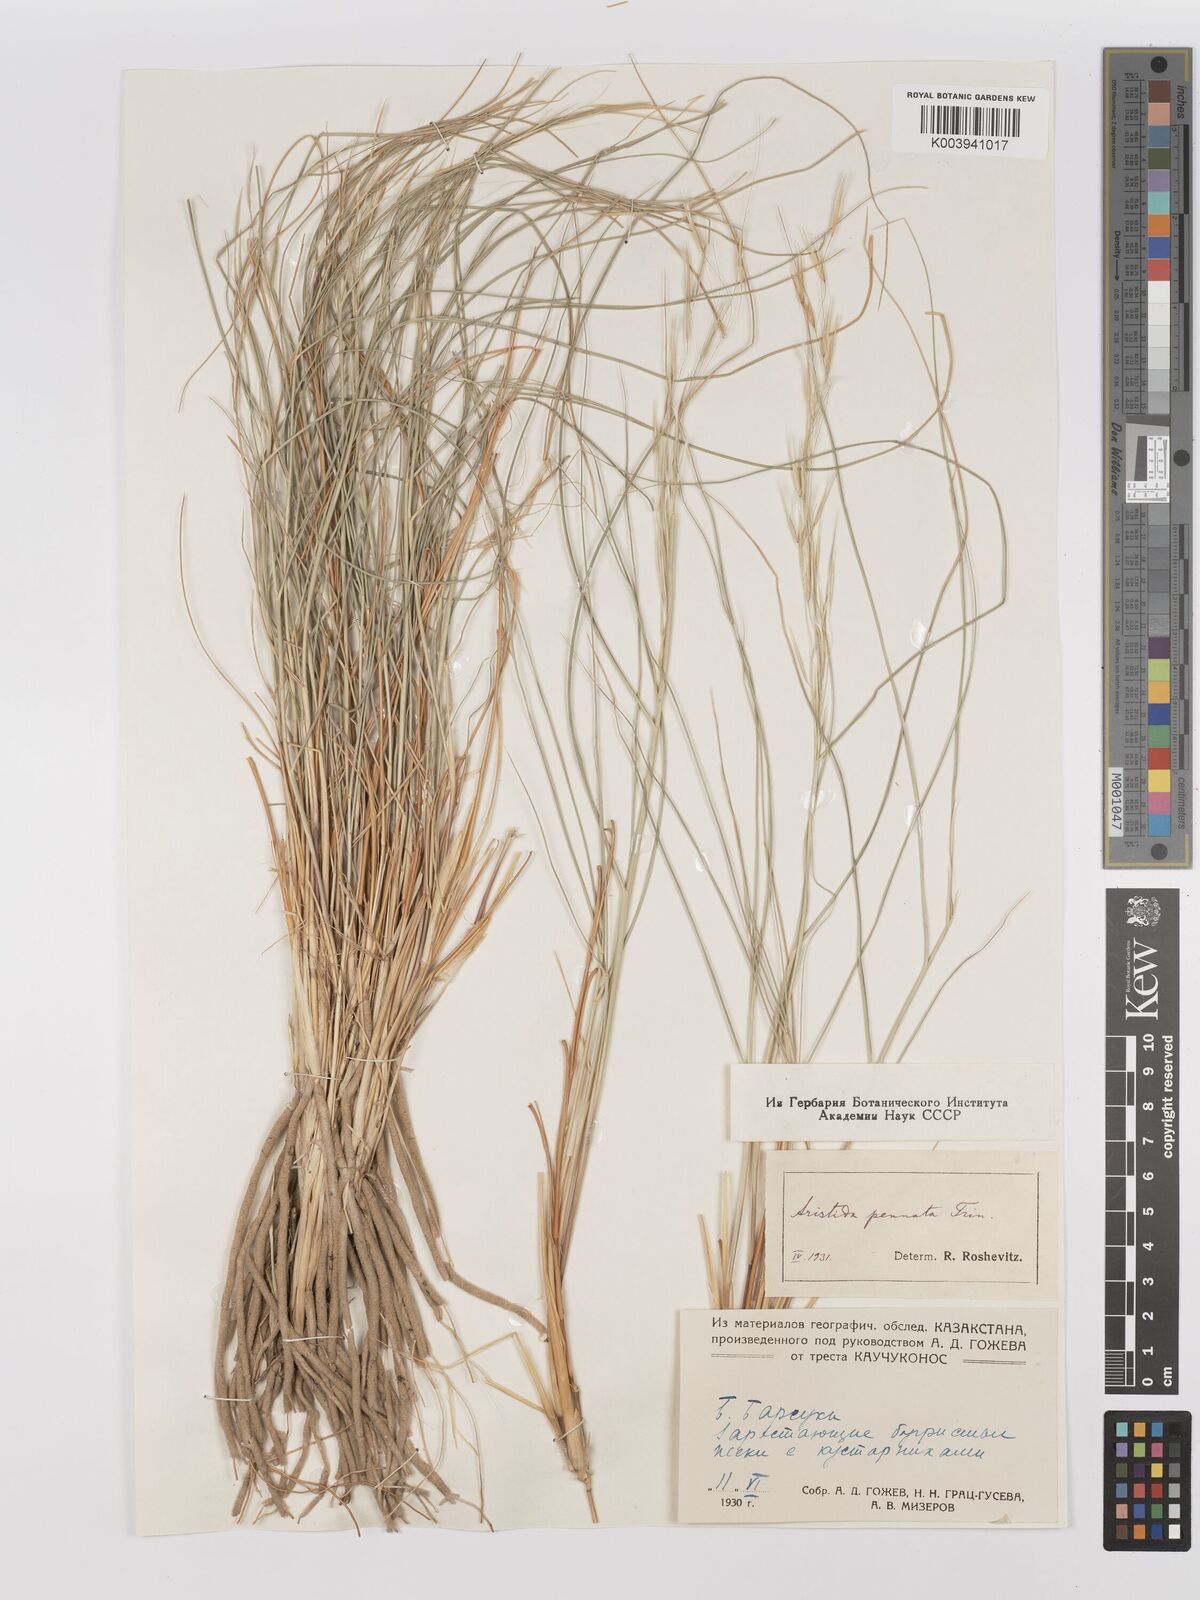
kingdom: Plantae
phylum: Tracheophyta
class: Liliopsida
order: Poales
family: Poaceae
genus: Stipagrostis
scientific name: Stipagrostis pennata
